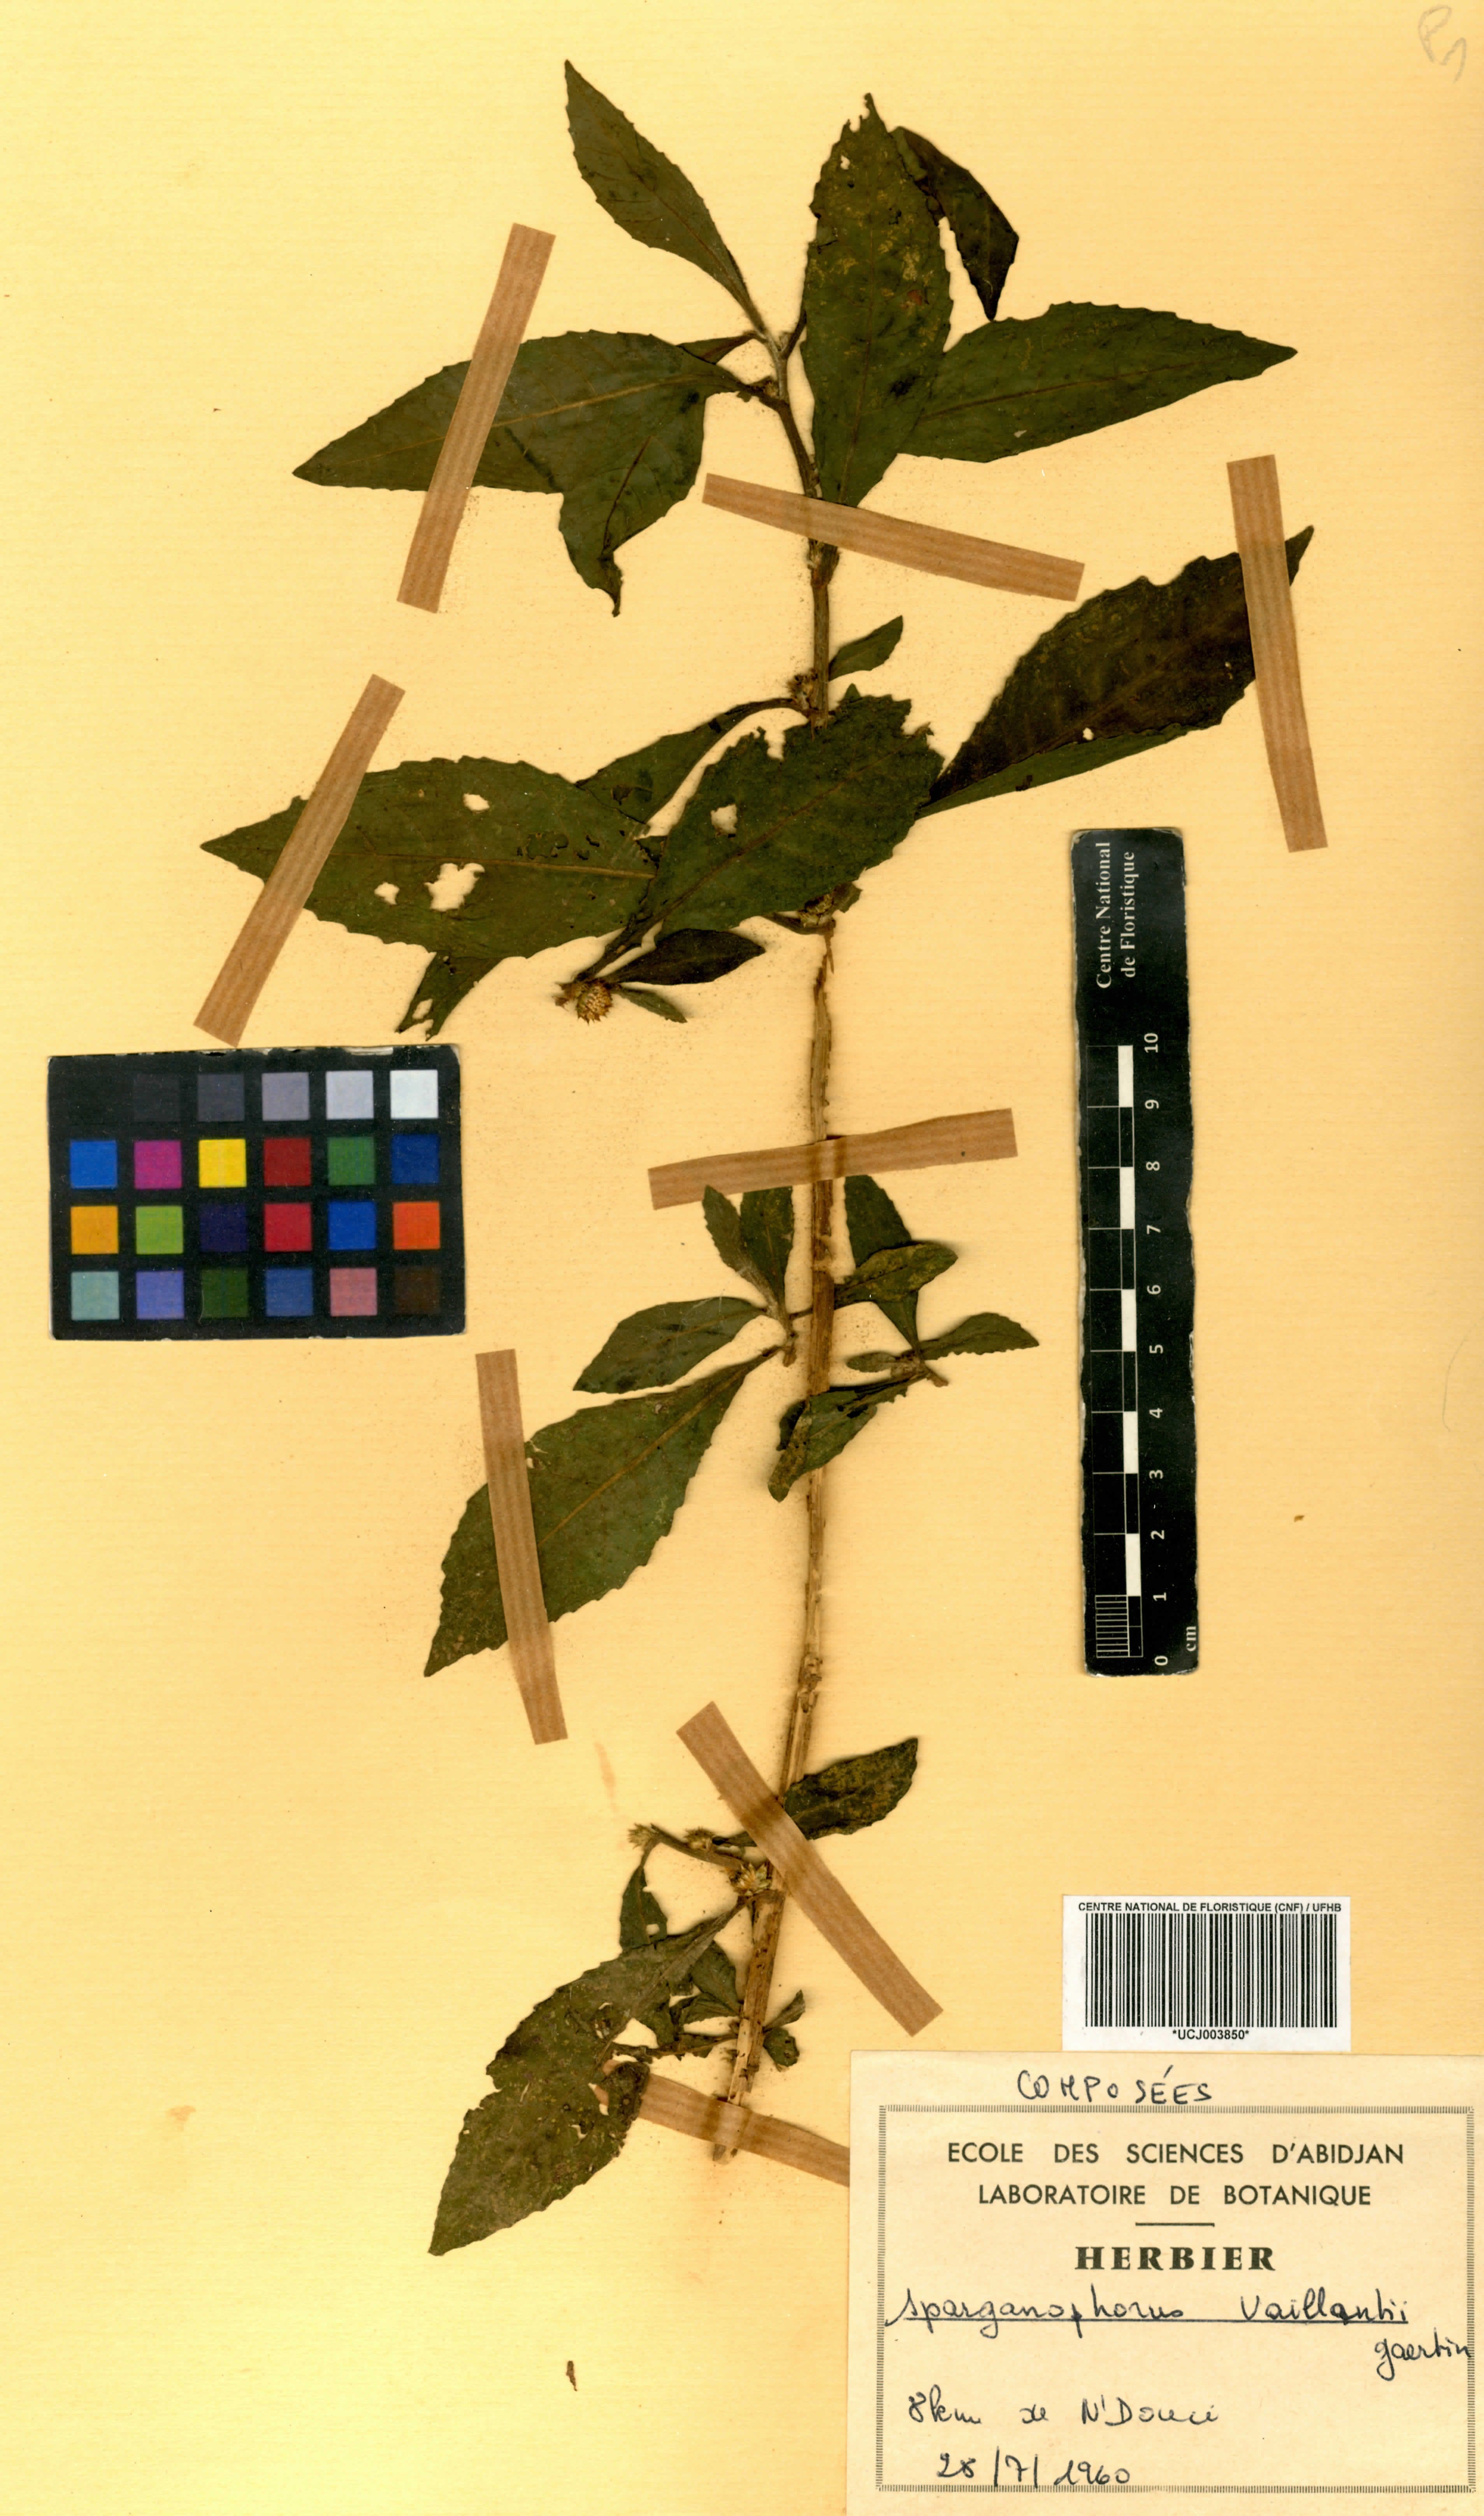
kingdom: Plantae
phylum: Tracheophyta
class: Magnoliopsida
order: Asterales
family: Asteraceae
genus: Struchium
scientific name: Struchium sparganophorum
